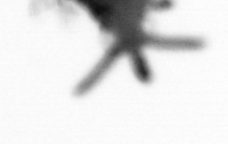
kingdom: Animalia
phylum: Annelida
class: Polychaeta
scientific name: Polychaeta
